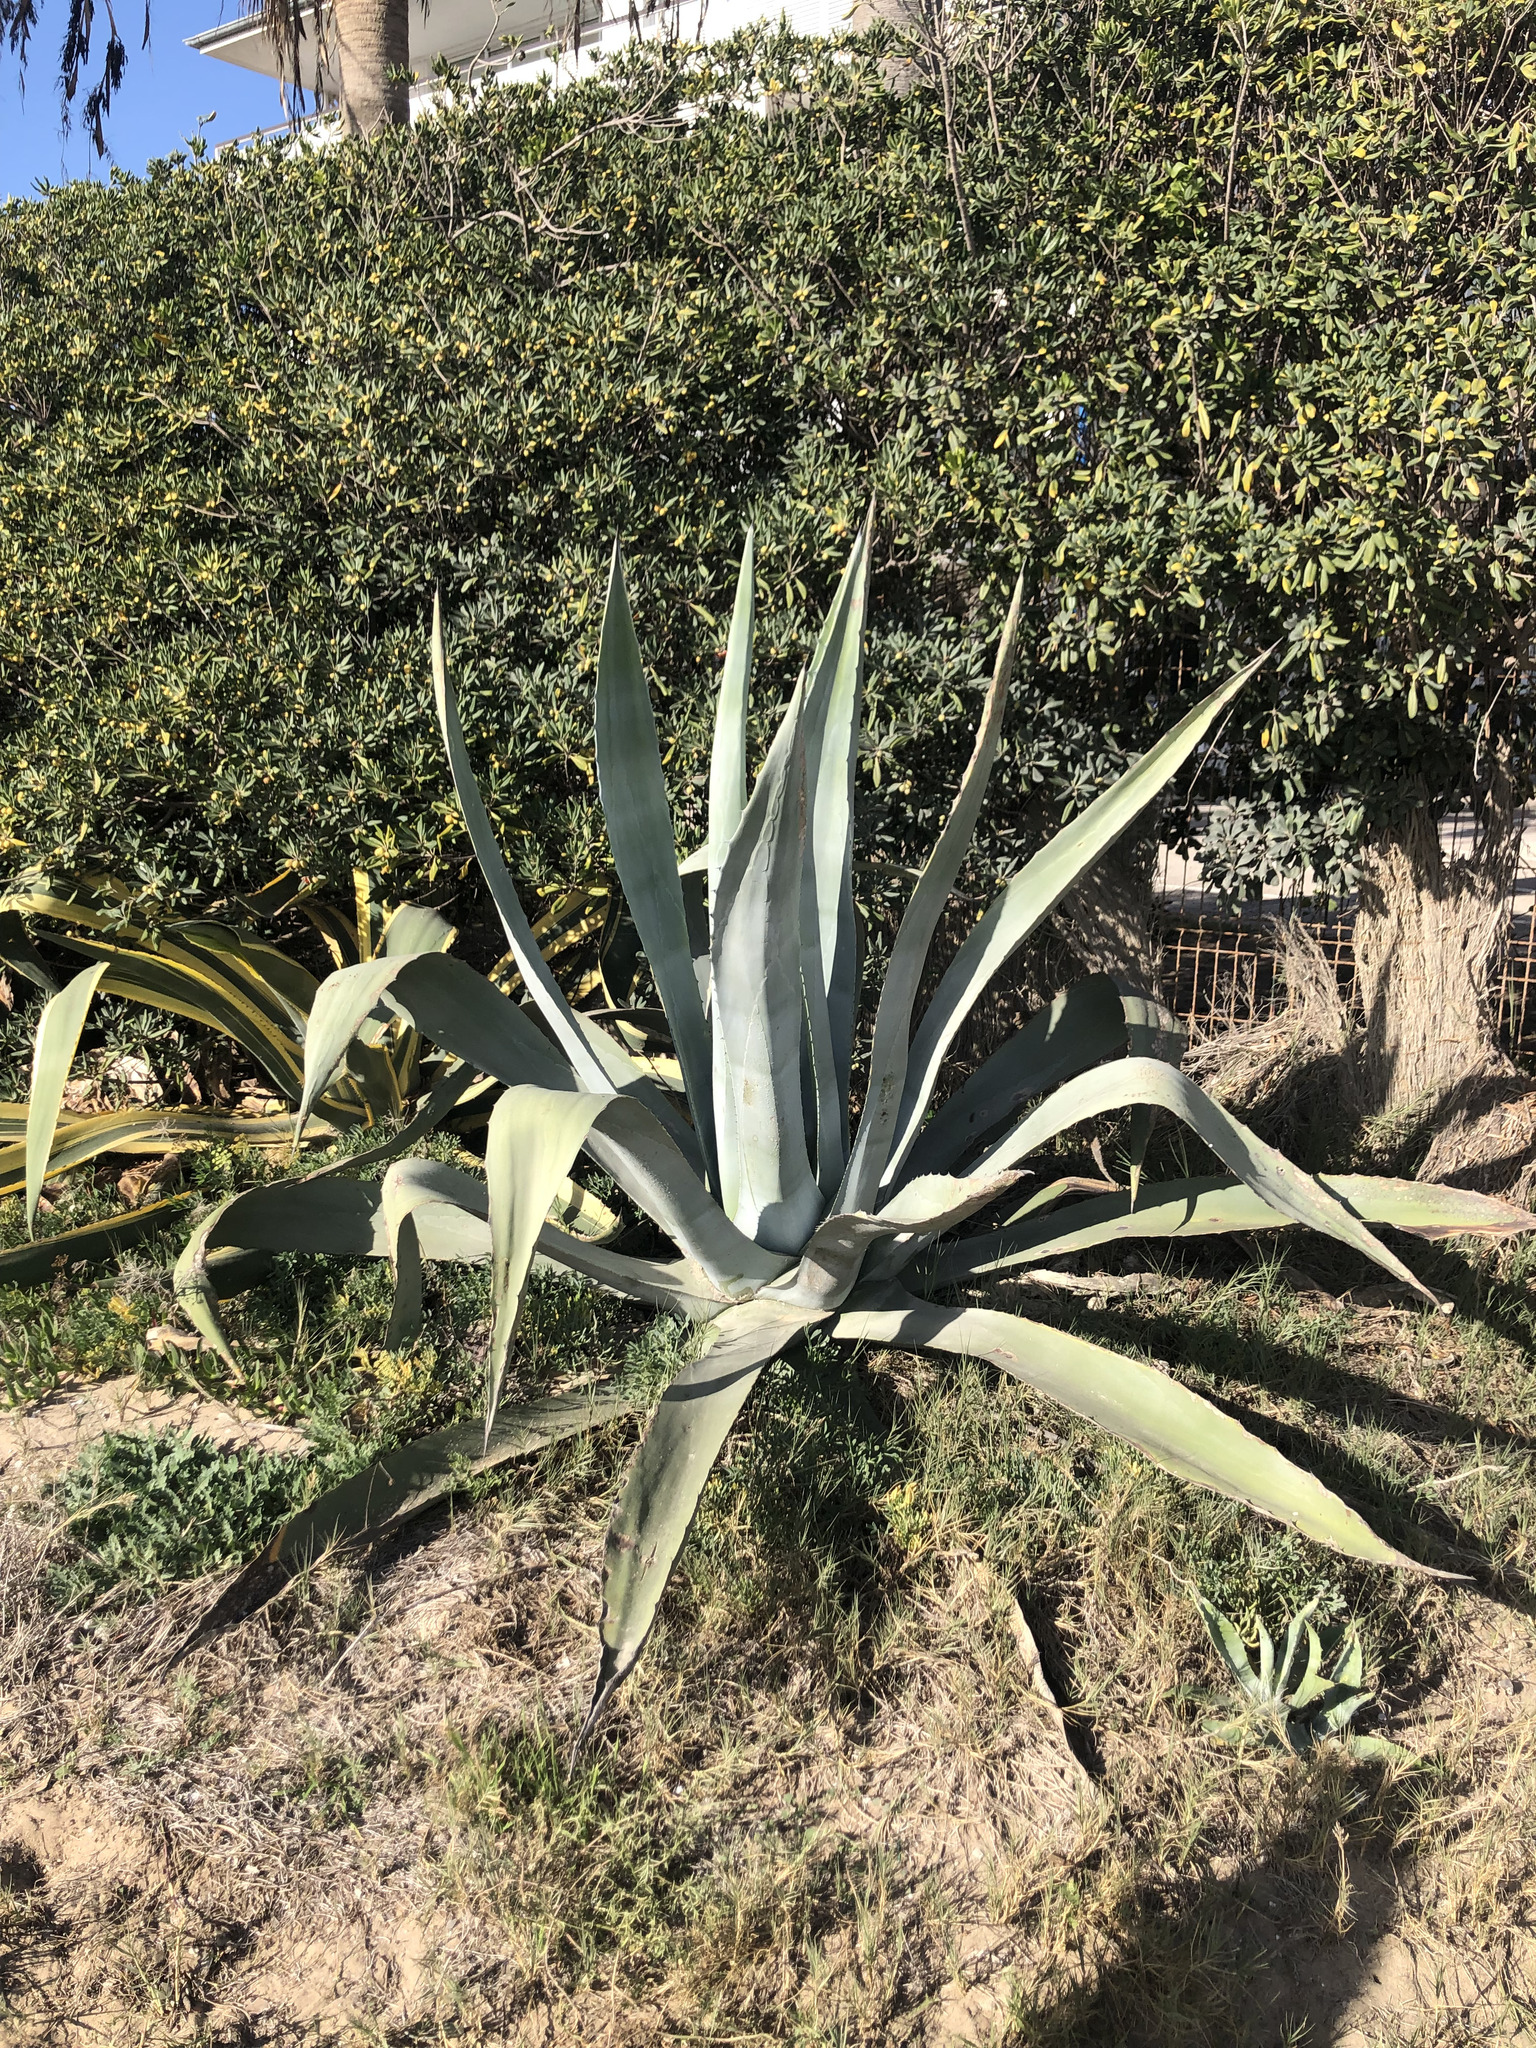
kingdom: Plantae
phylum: Tracheophyta
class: Liliopsida
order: Asparagales
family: Asparagaceae
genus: Agave
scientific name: Agave americana
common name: Centuryplant
